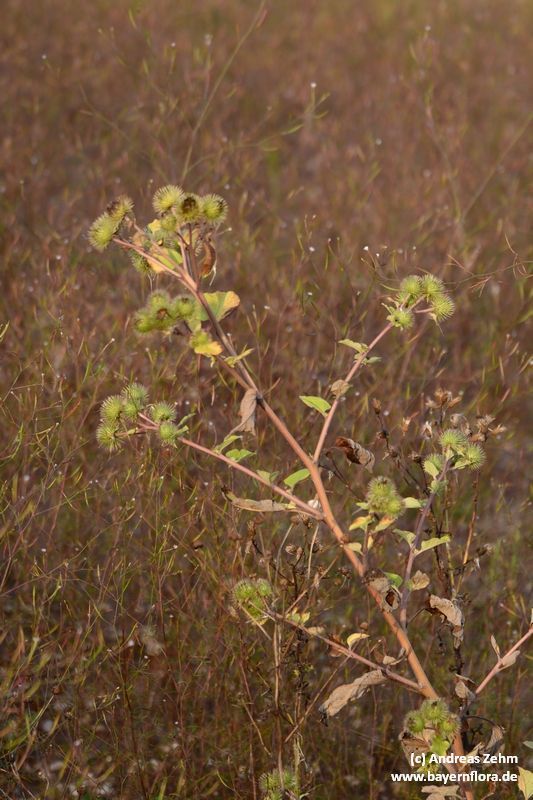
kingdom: Plantae
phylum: Tracheophyta
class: Magnoliopsida
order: Asterales
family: Asteraceae
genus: Arctium
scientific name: Arctium lappa
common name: Greater burdock
